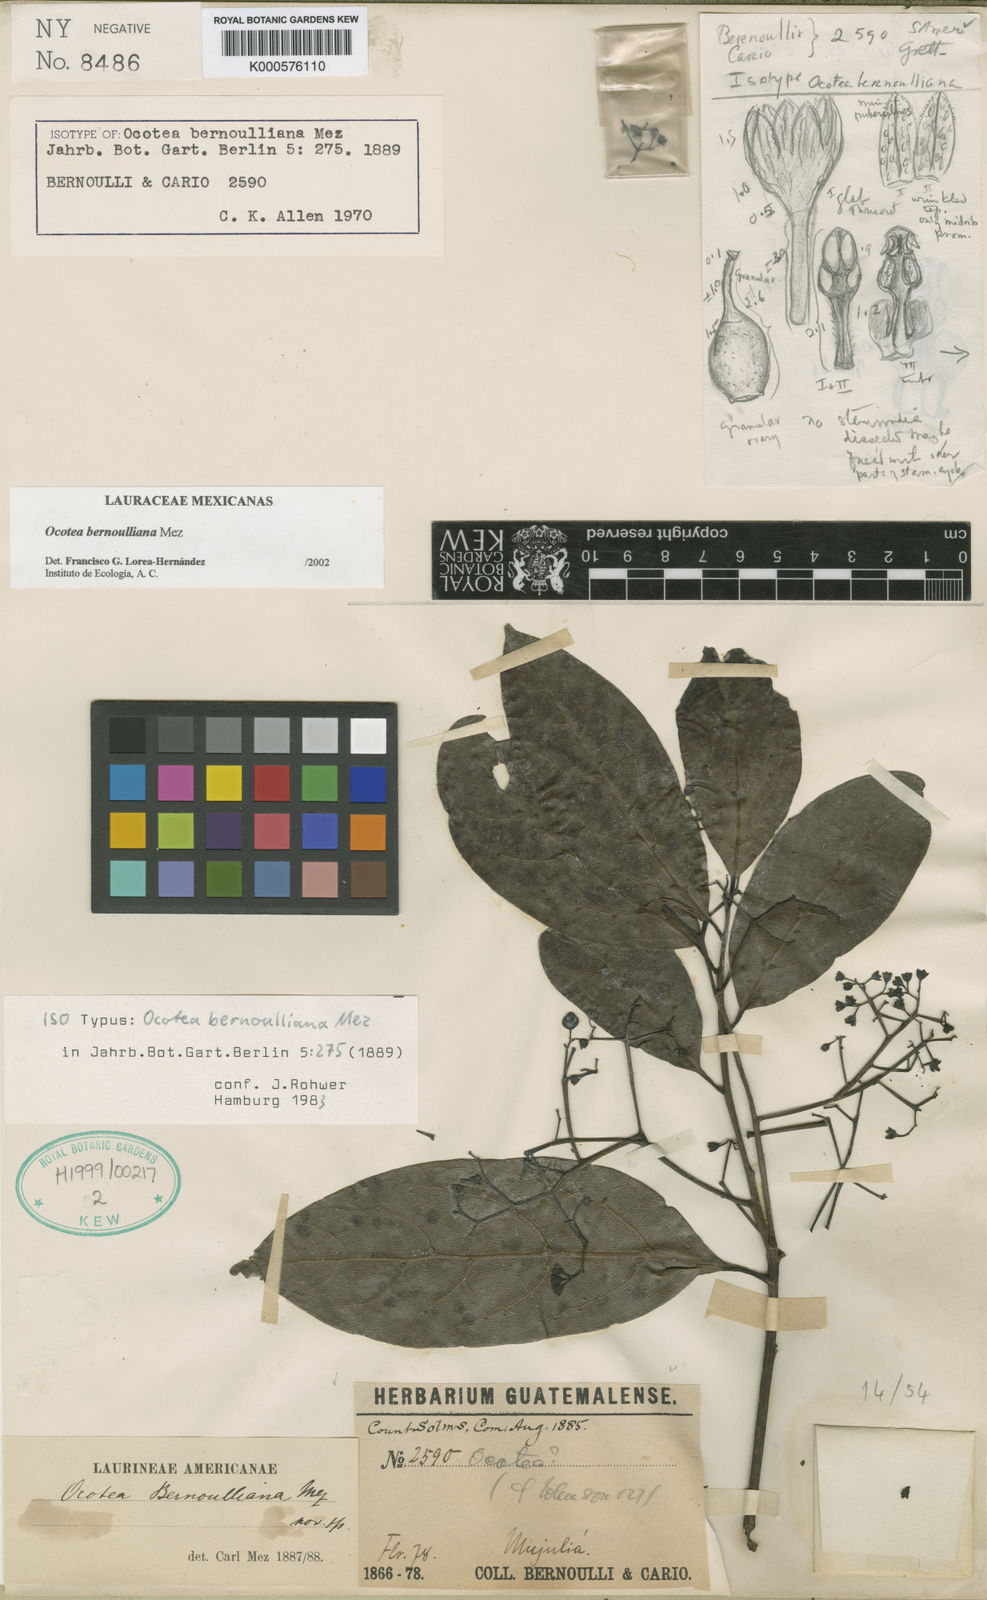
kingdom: Plantae
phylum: Tracheophyta
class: Magnoliopsida
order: Laurales
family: Lauraceae
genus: Ocotea
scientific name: Ocotea bernoulliana
